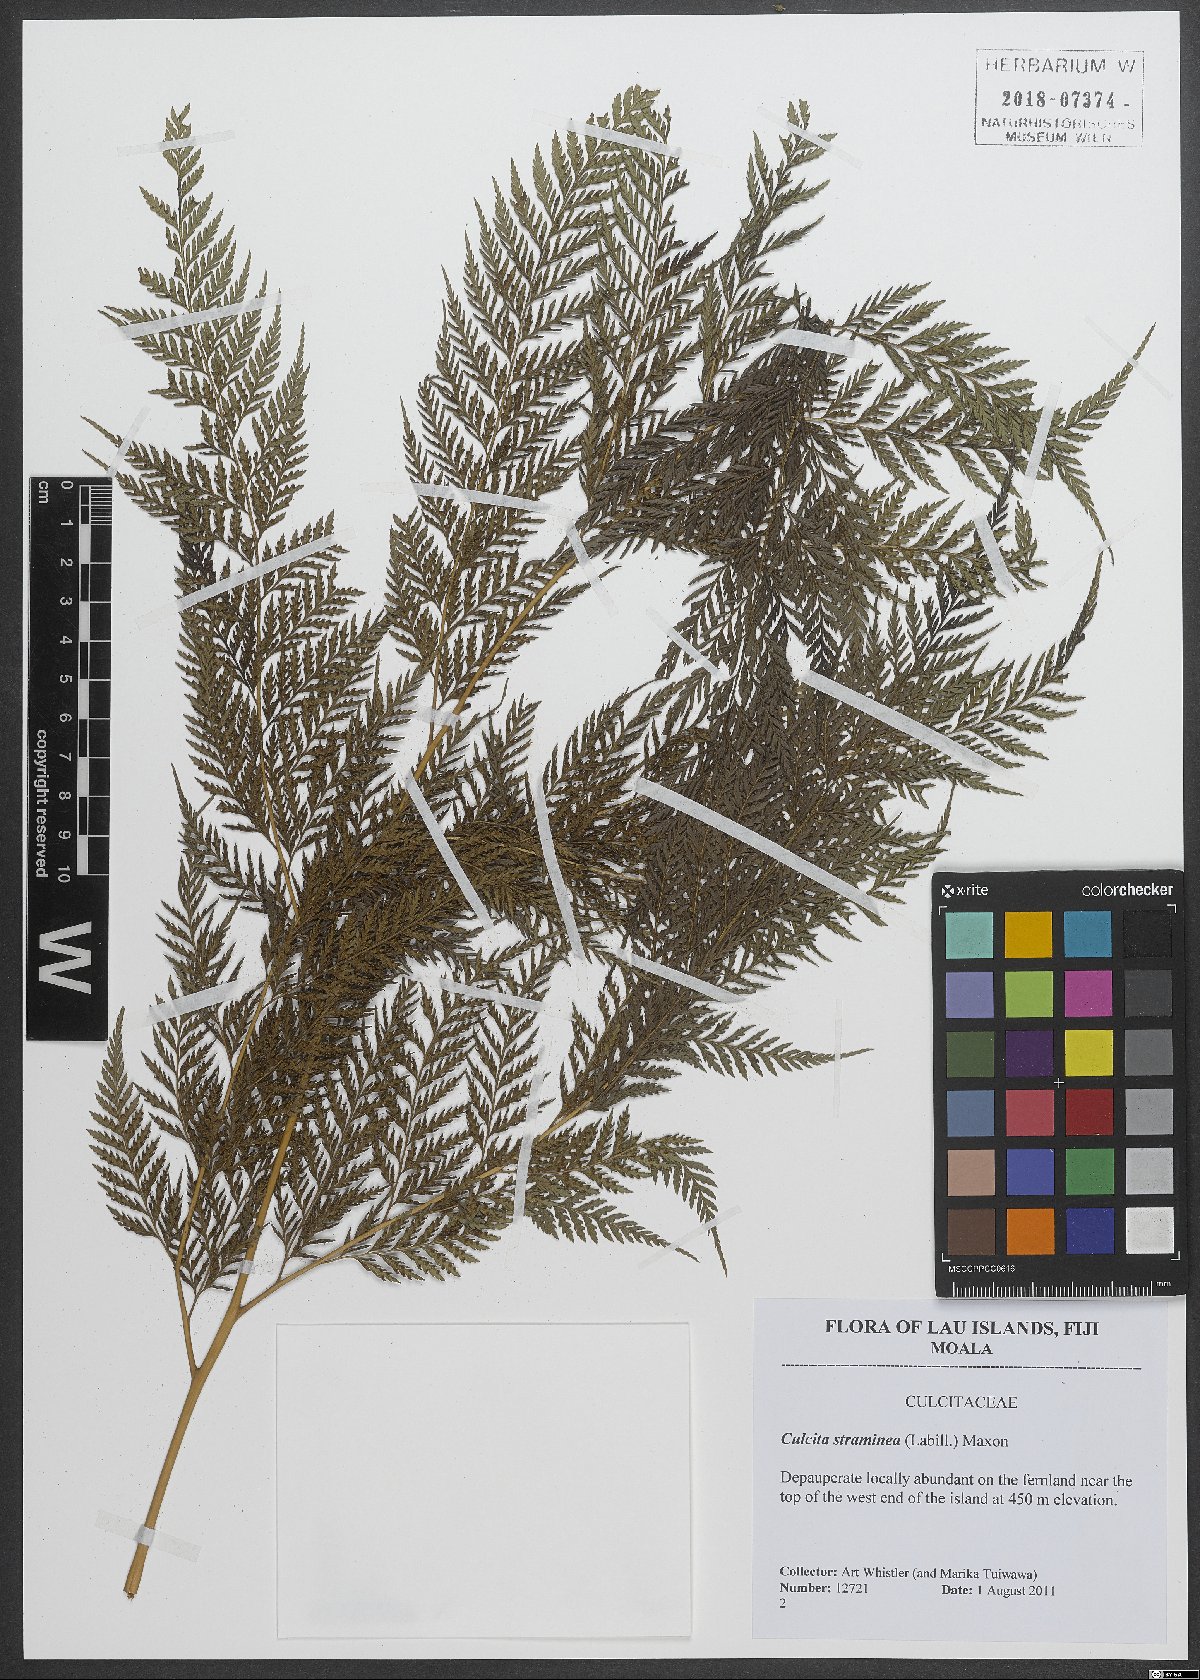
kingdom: Plantae
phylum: Tracheophyta
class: Polypodiopsida
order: Cyatheales
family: Dicksoniaceae
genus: Calochlaena
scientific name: Calochlaena straminea
